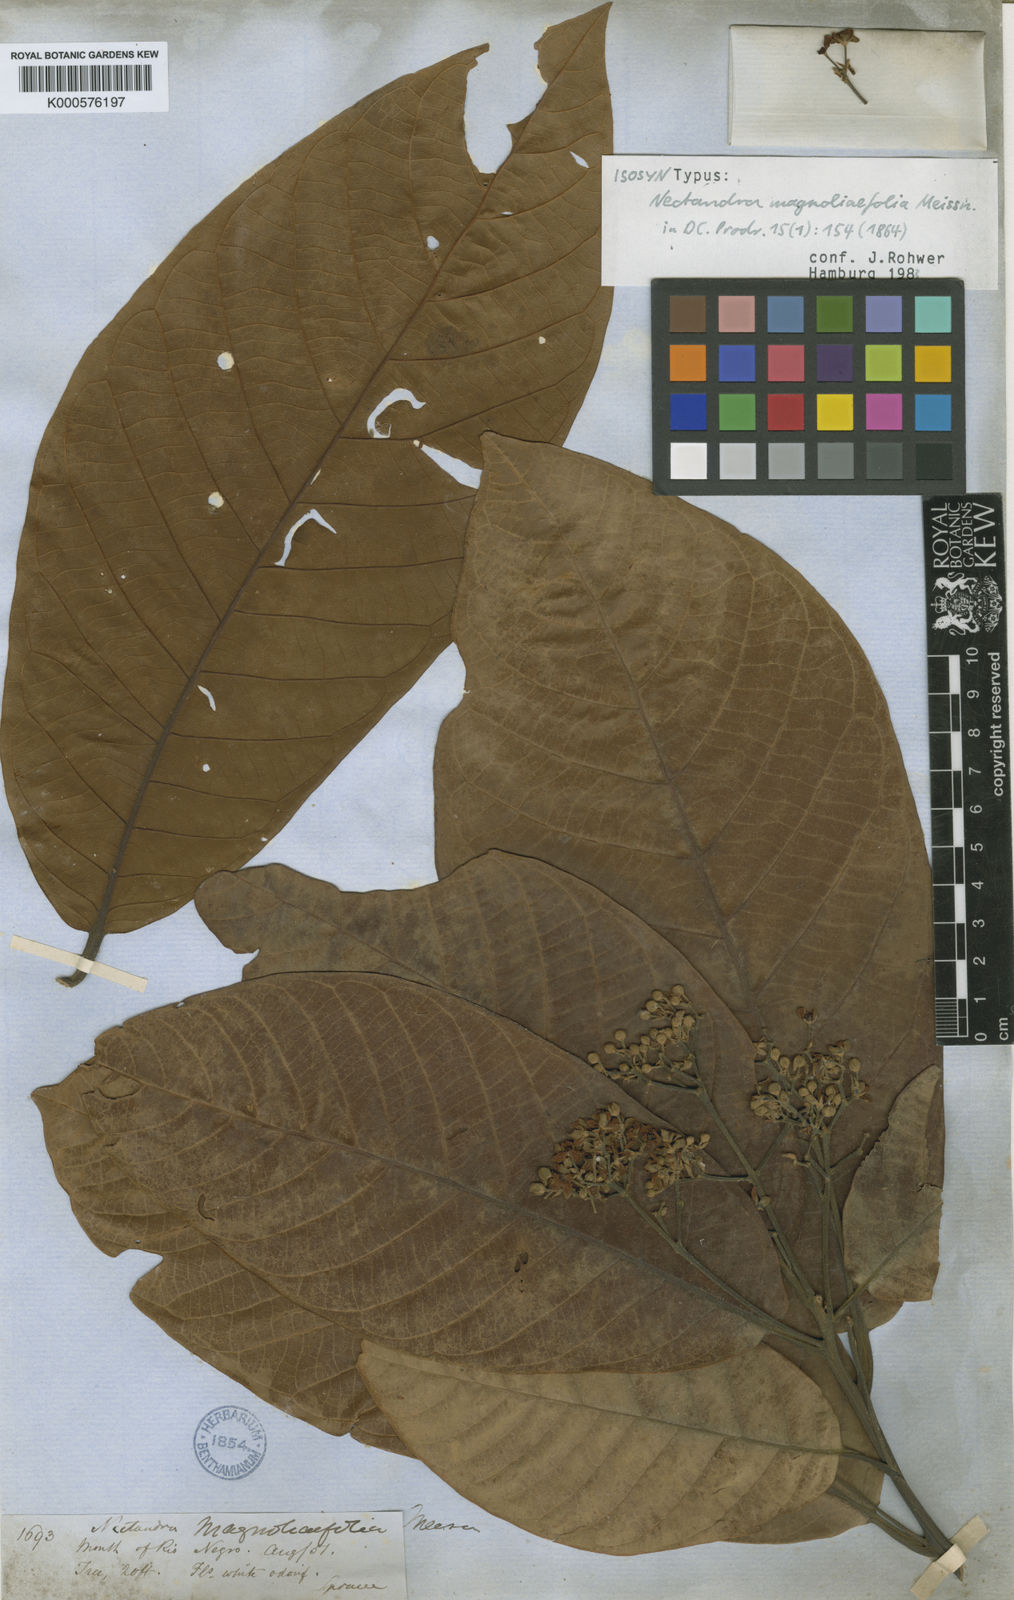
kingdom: Plantae
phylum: Tracheophyta
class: Magnoliopsida
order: Laurales
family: Lauraceae
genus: Nectandra
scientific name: Nectandra canescens
